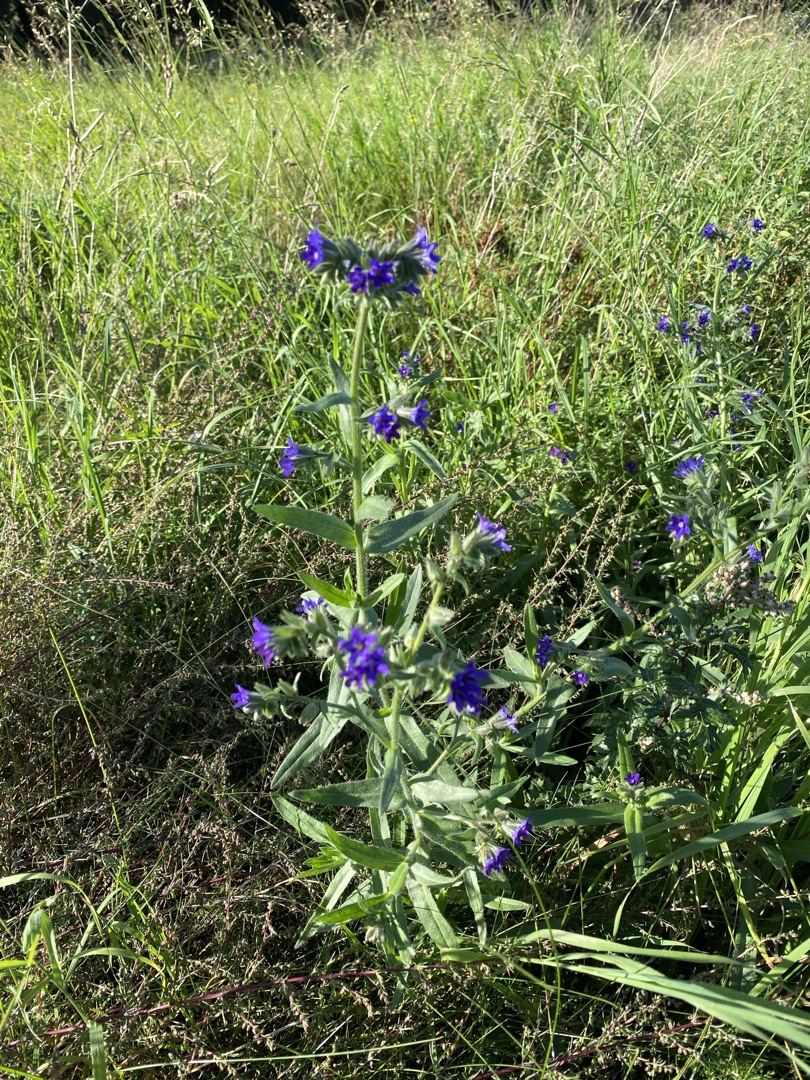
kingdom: Plantae
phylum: Tracheophyta
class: Magnoliopsida
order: Boraginales
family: Boraginaceae
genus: Anchusa
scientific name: Anchusa officinalis
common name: Læge-oksetunge
